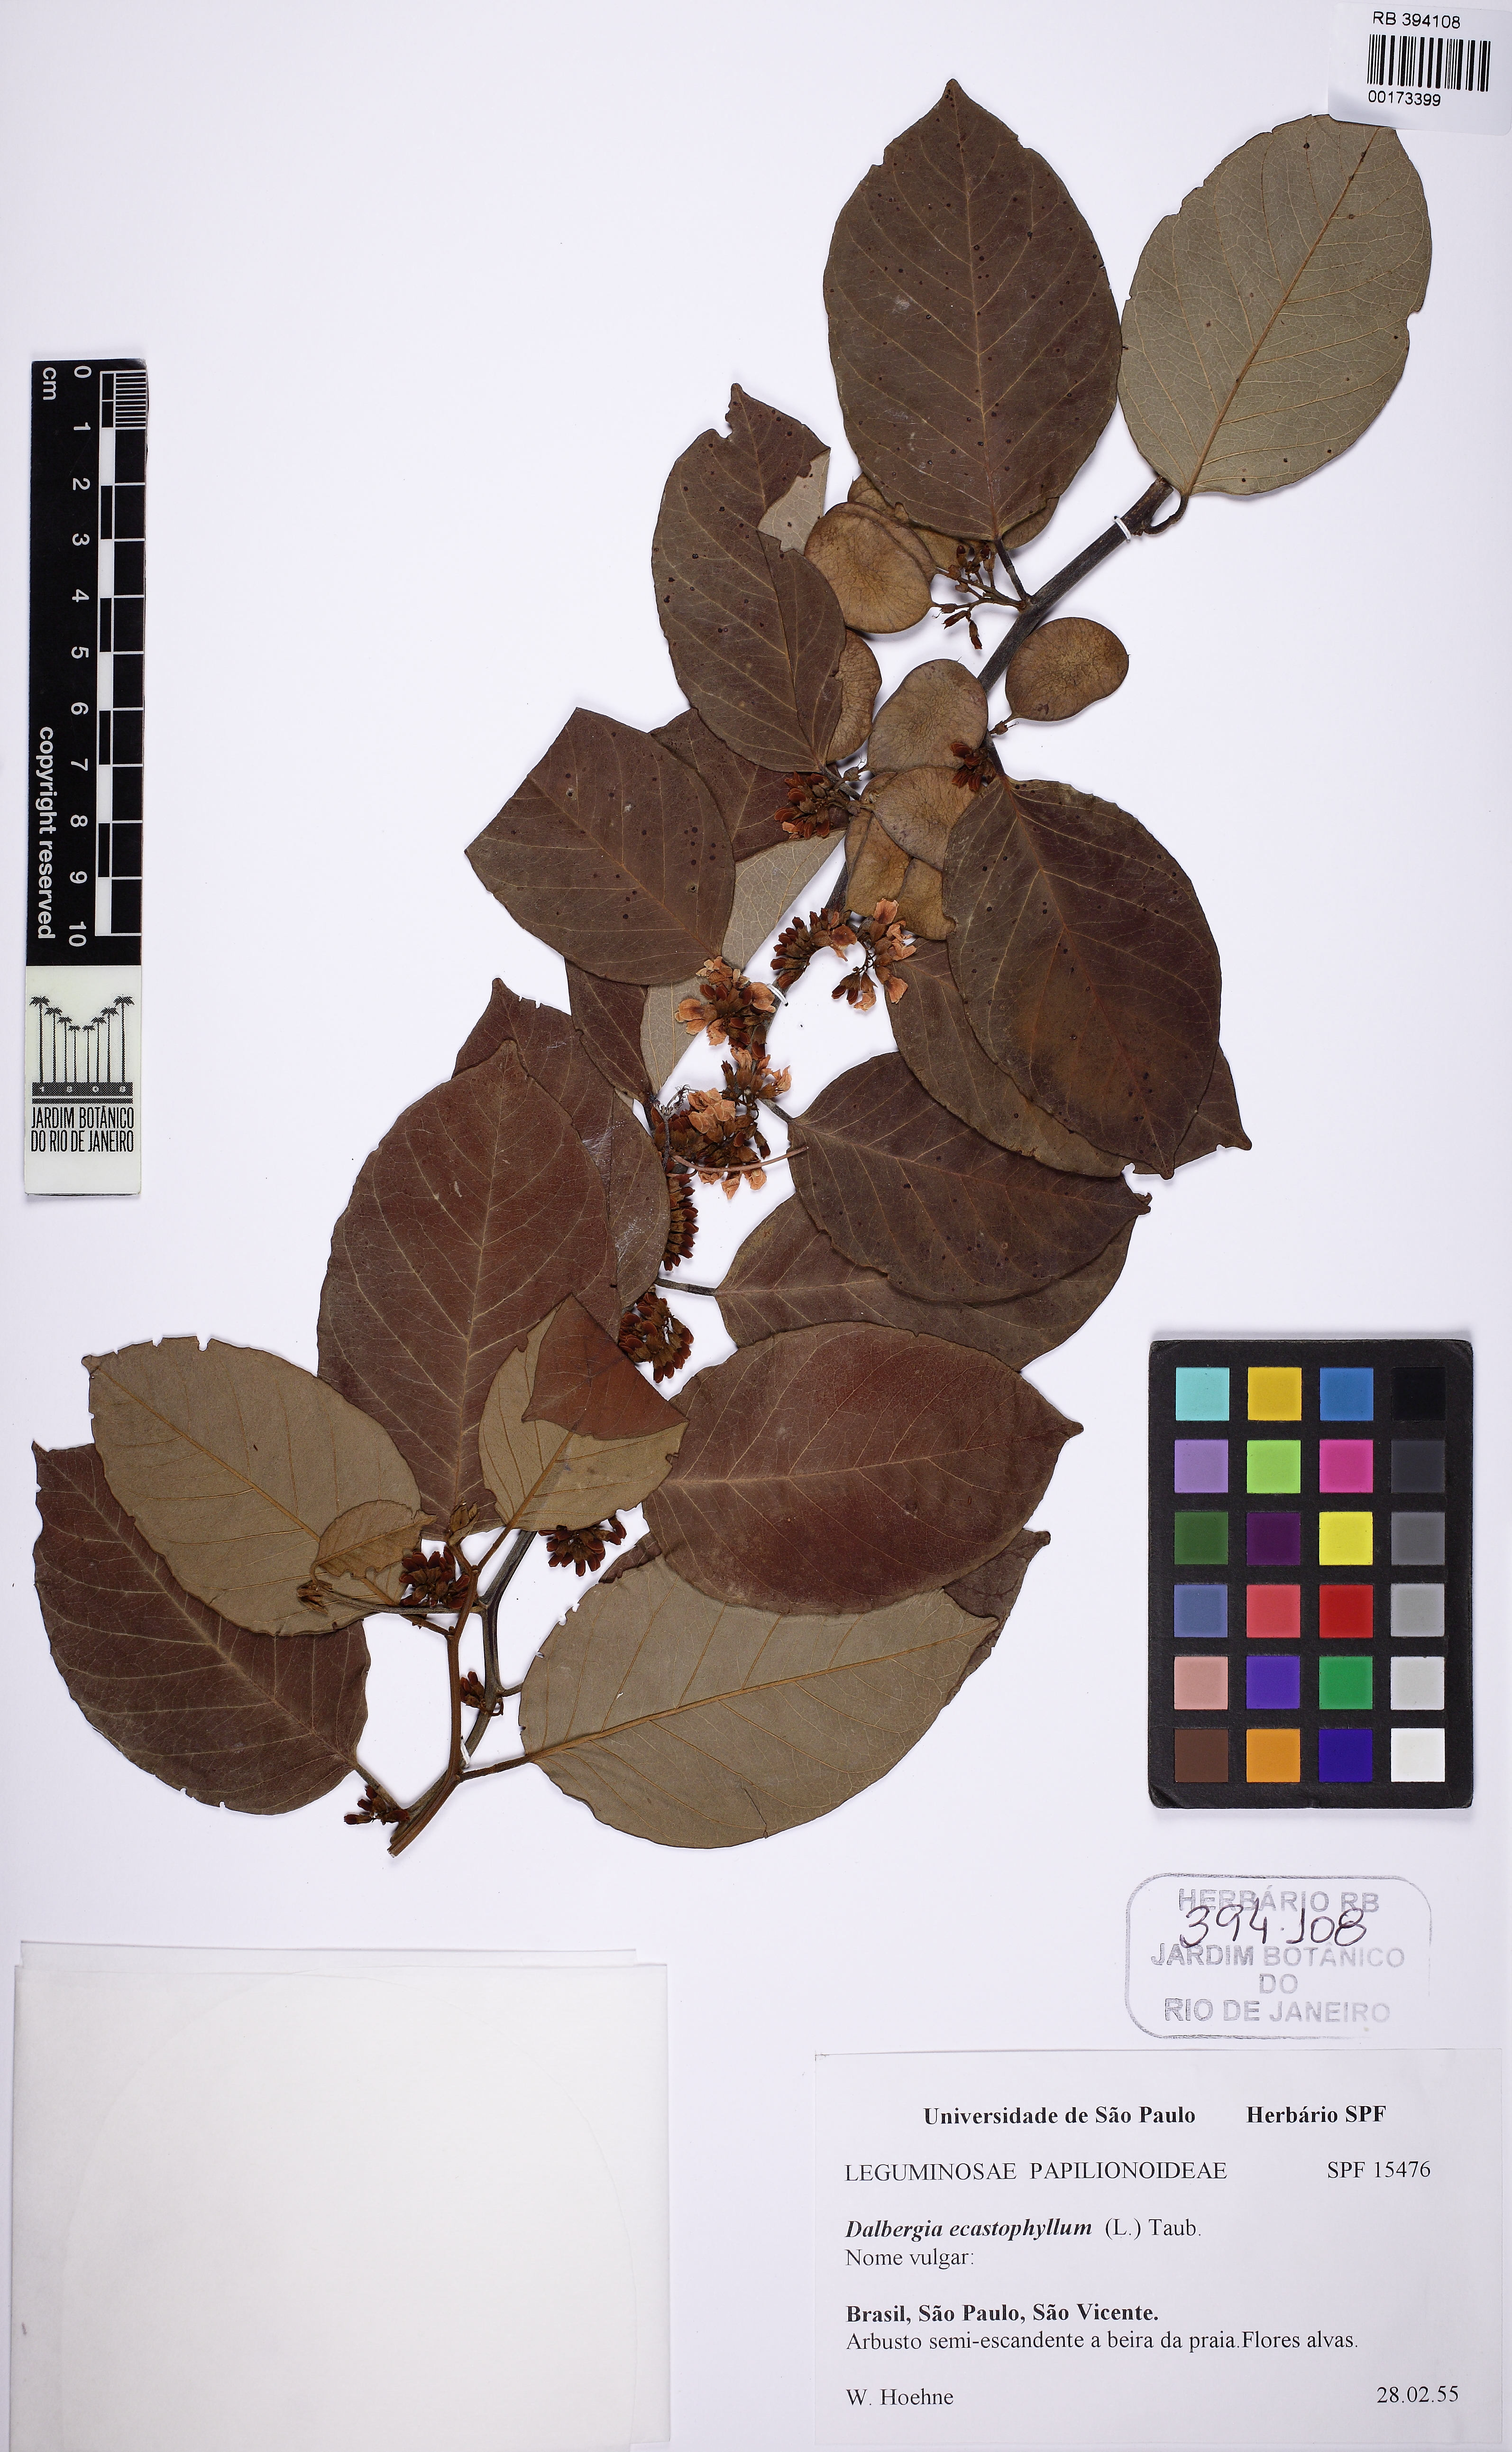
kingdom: Plantae
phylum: Tracheophyta
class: Magnoliopsida
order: Fabales
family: Fabaceae
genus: Dalbergia
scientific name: Dalbergia ecastaphyllum
